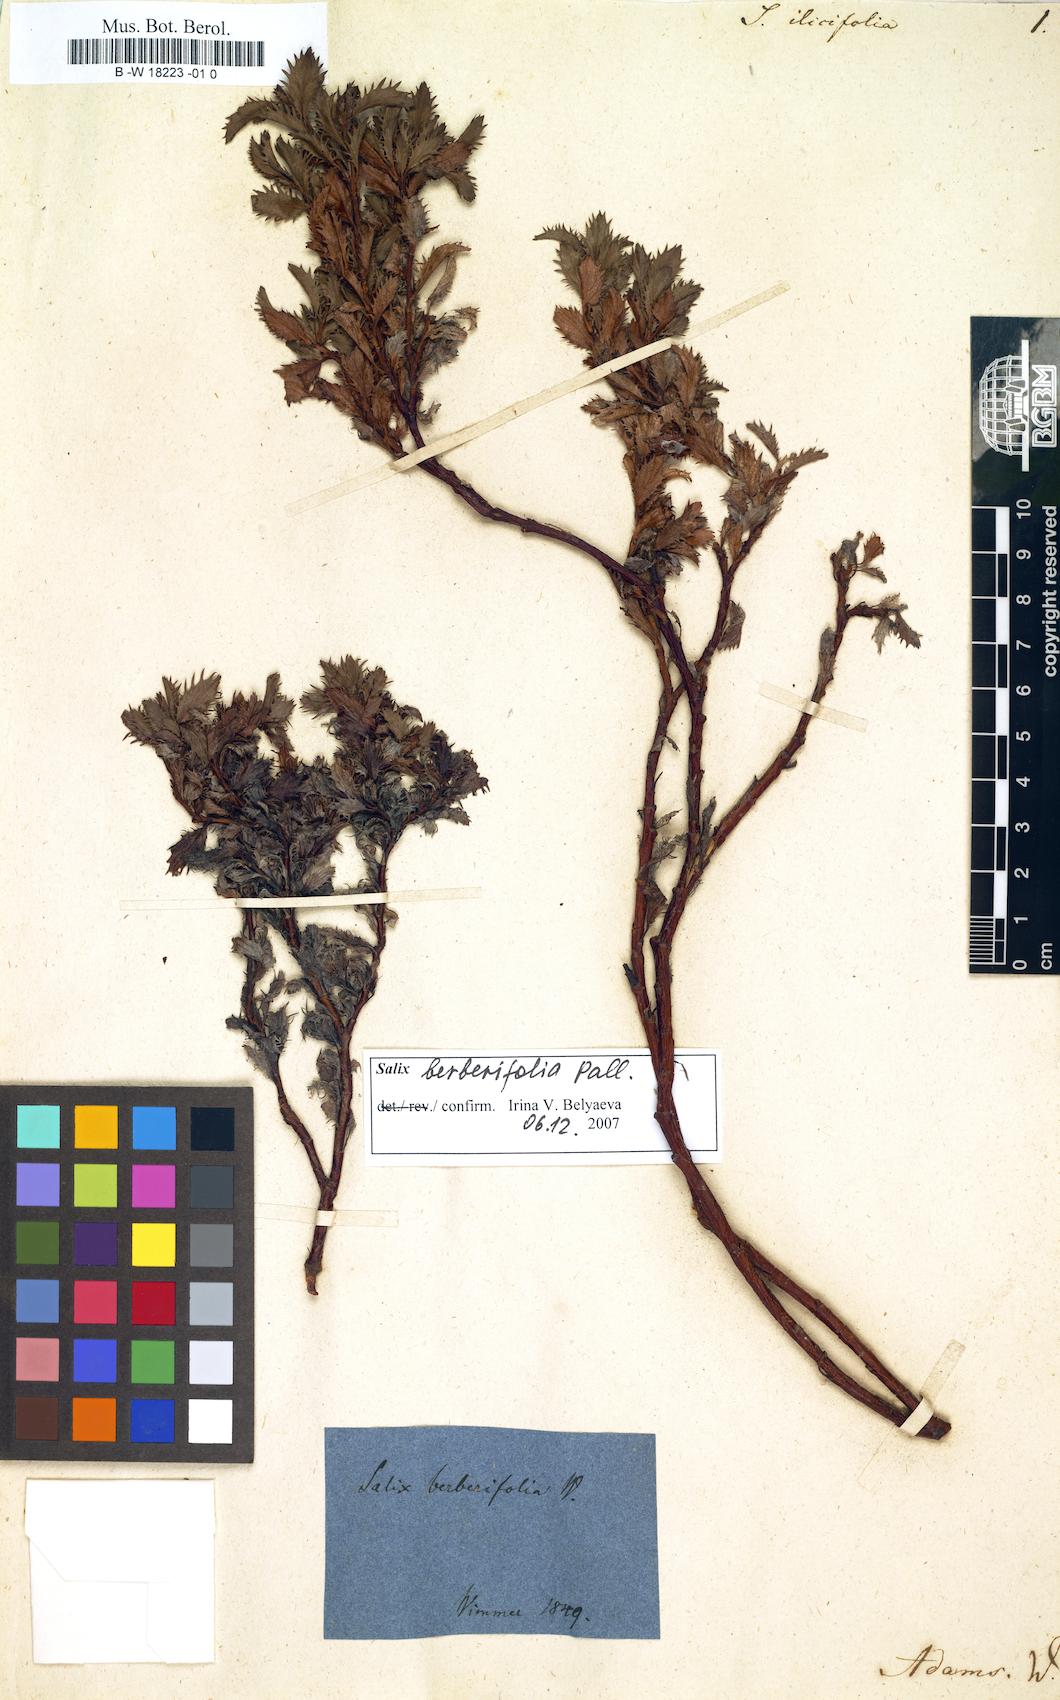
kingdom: Plantae
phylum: Tracheophyta
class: Magnoliopsida
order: Malpighiales
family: Salicaceae
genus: Salix
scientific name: Salix berberifolia
